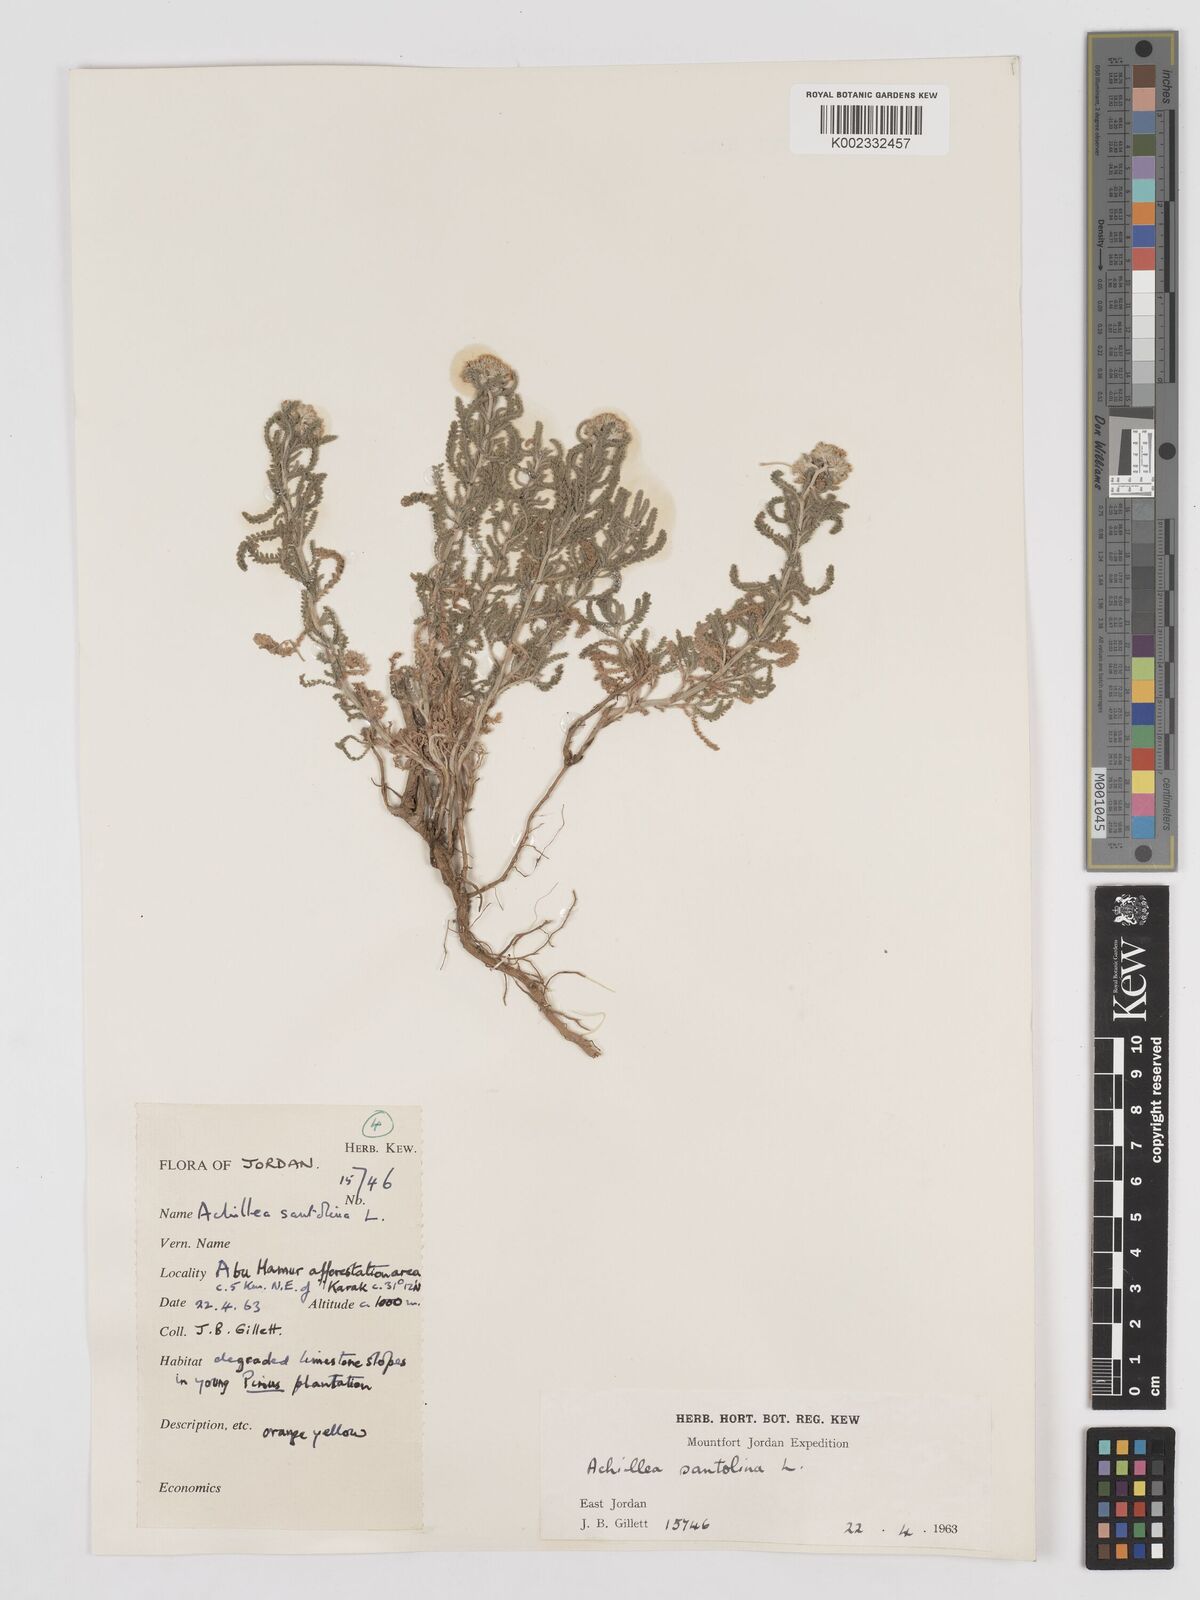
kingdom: Plantae
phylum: Tracheophyta
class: Magnoliopsida
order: Asterales
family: Asteraceae
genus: Achillea
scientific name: Achillea tenuifolia
